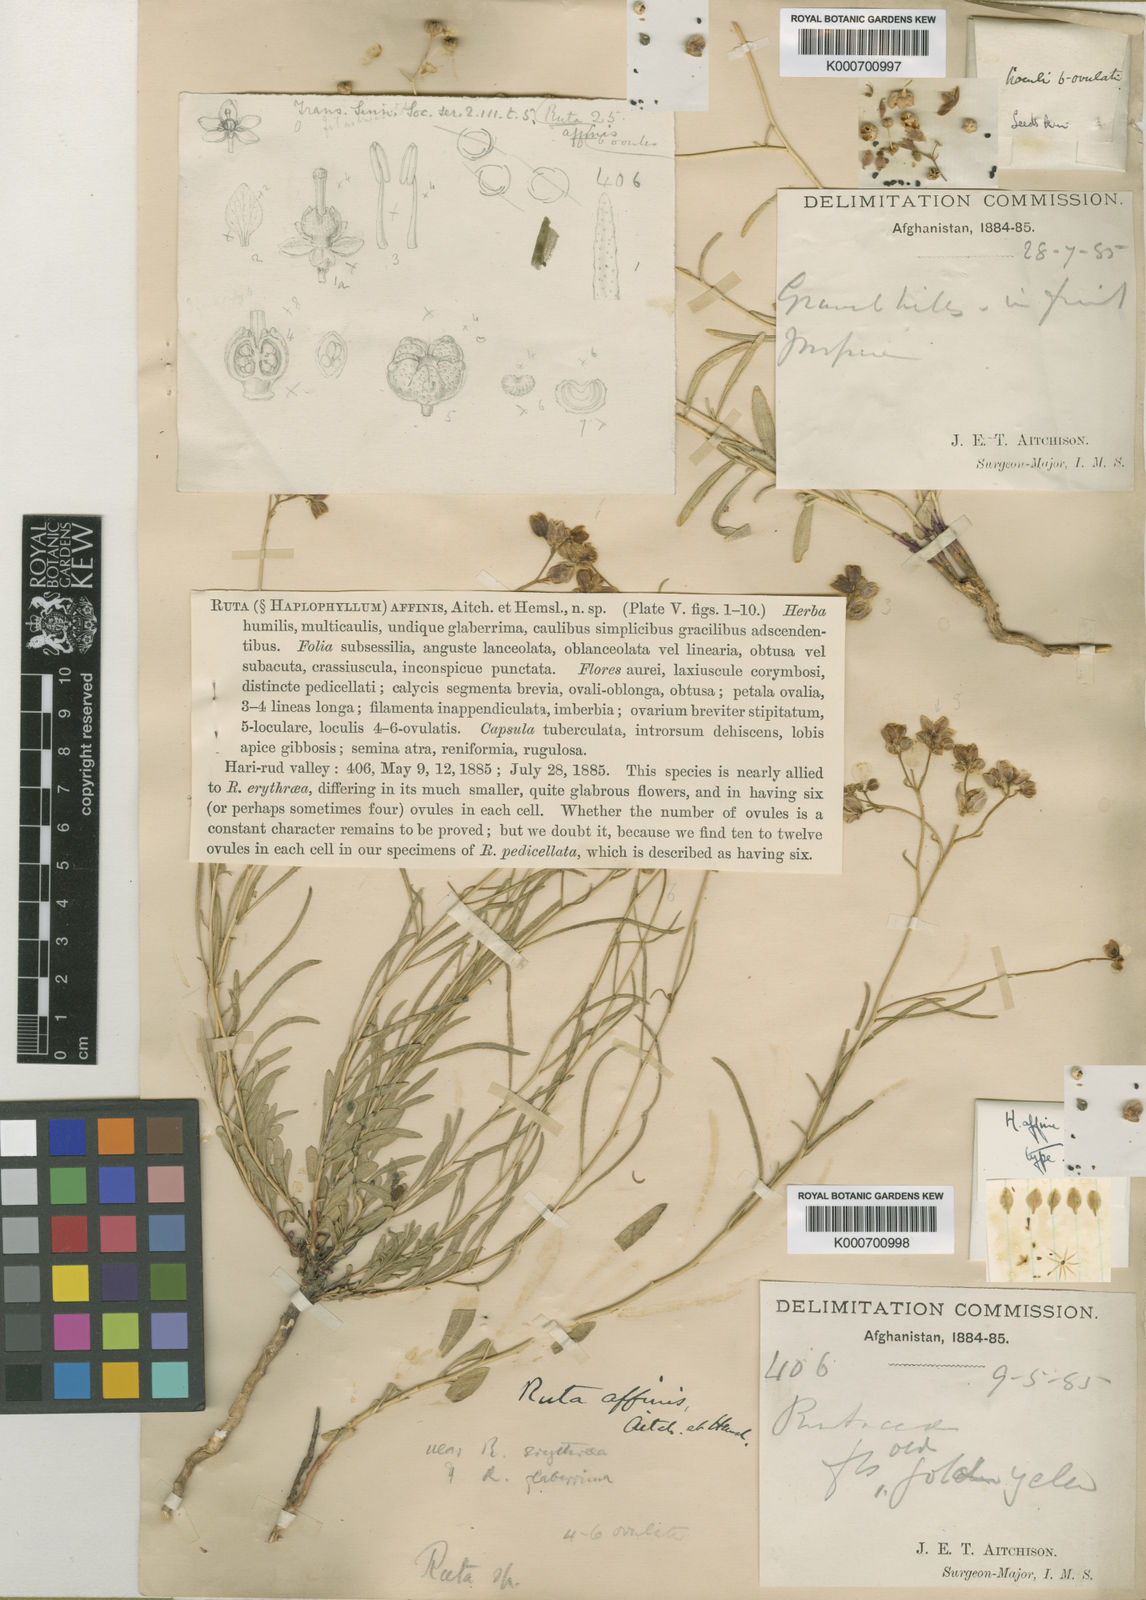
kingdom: Plantae
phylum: Tracheophyta
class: Magnoliopsida
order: Sapindales
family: Rutaceae
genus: Haplophyllum
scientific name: Haplophyllum
